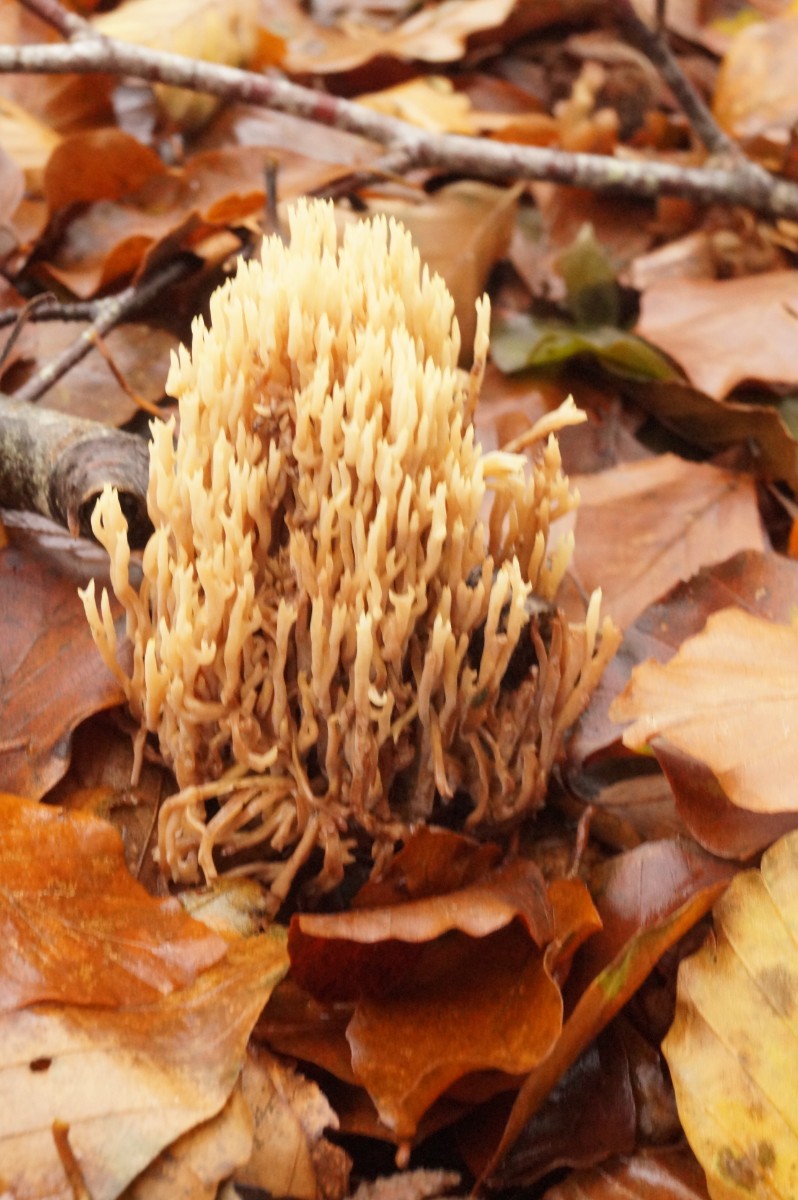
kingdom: Fungi
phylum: Basidiomycota
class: Agaricomycetes
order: Gomphales
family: Gomphaceae
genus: Ramaria
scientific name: Ramaria stricta
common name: rank koralsvamp
